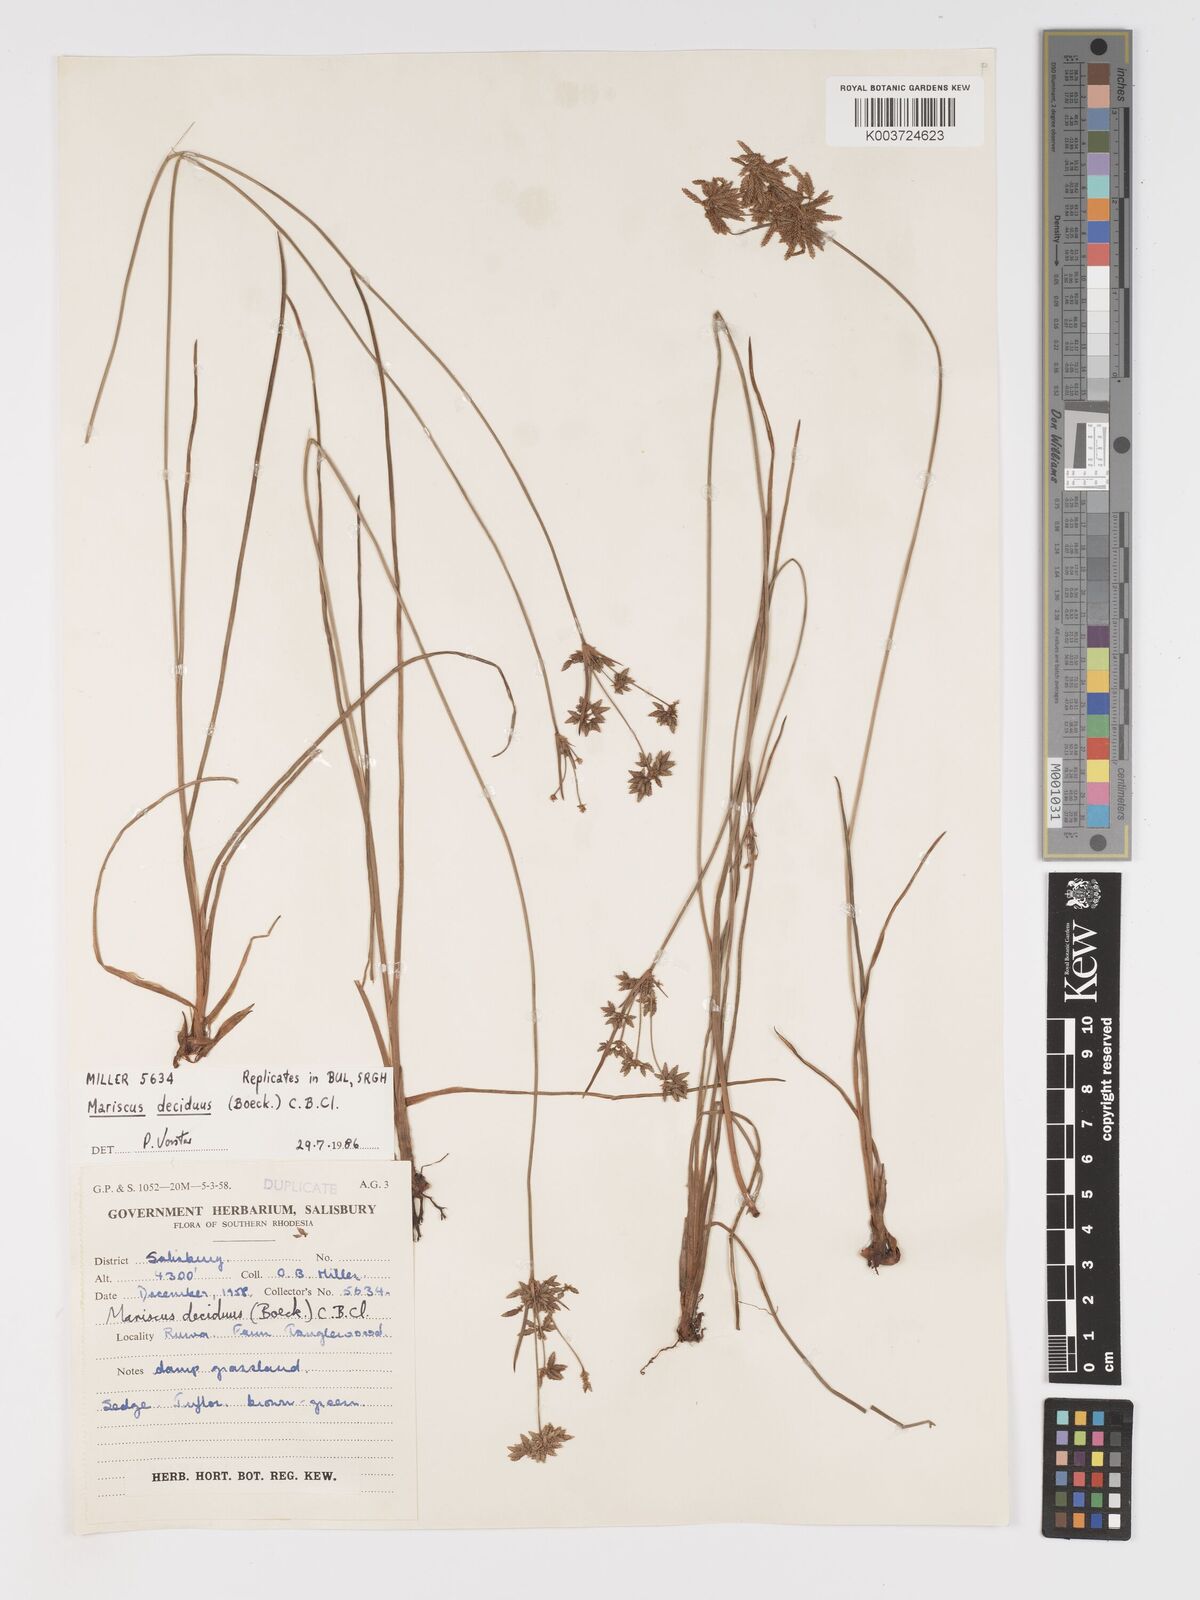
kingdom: Plantae
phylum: Tracheophyta
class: Liliopsida
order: Poales
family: Cyperaceae
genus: Cyperus
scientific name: Cyperus deciduus
